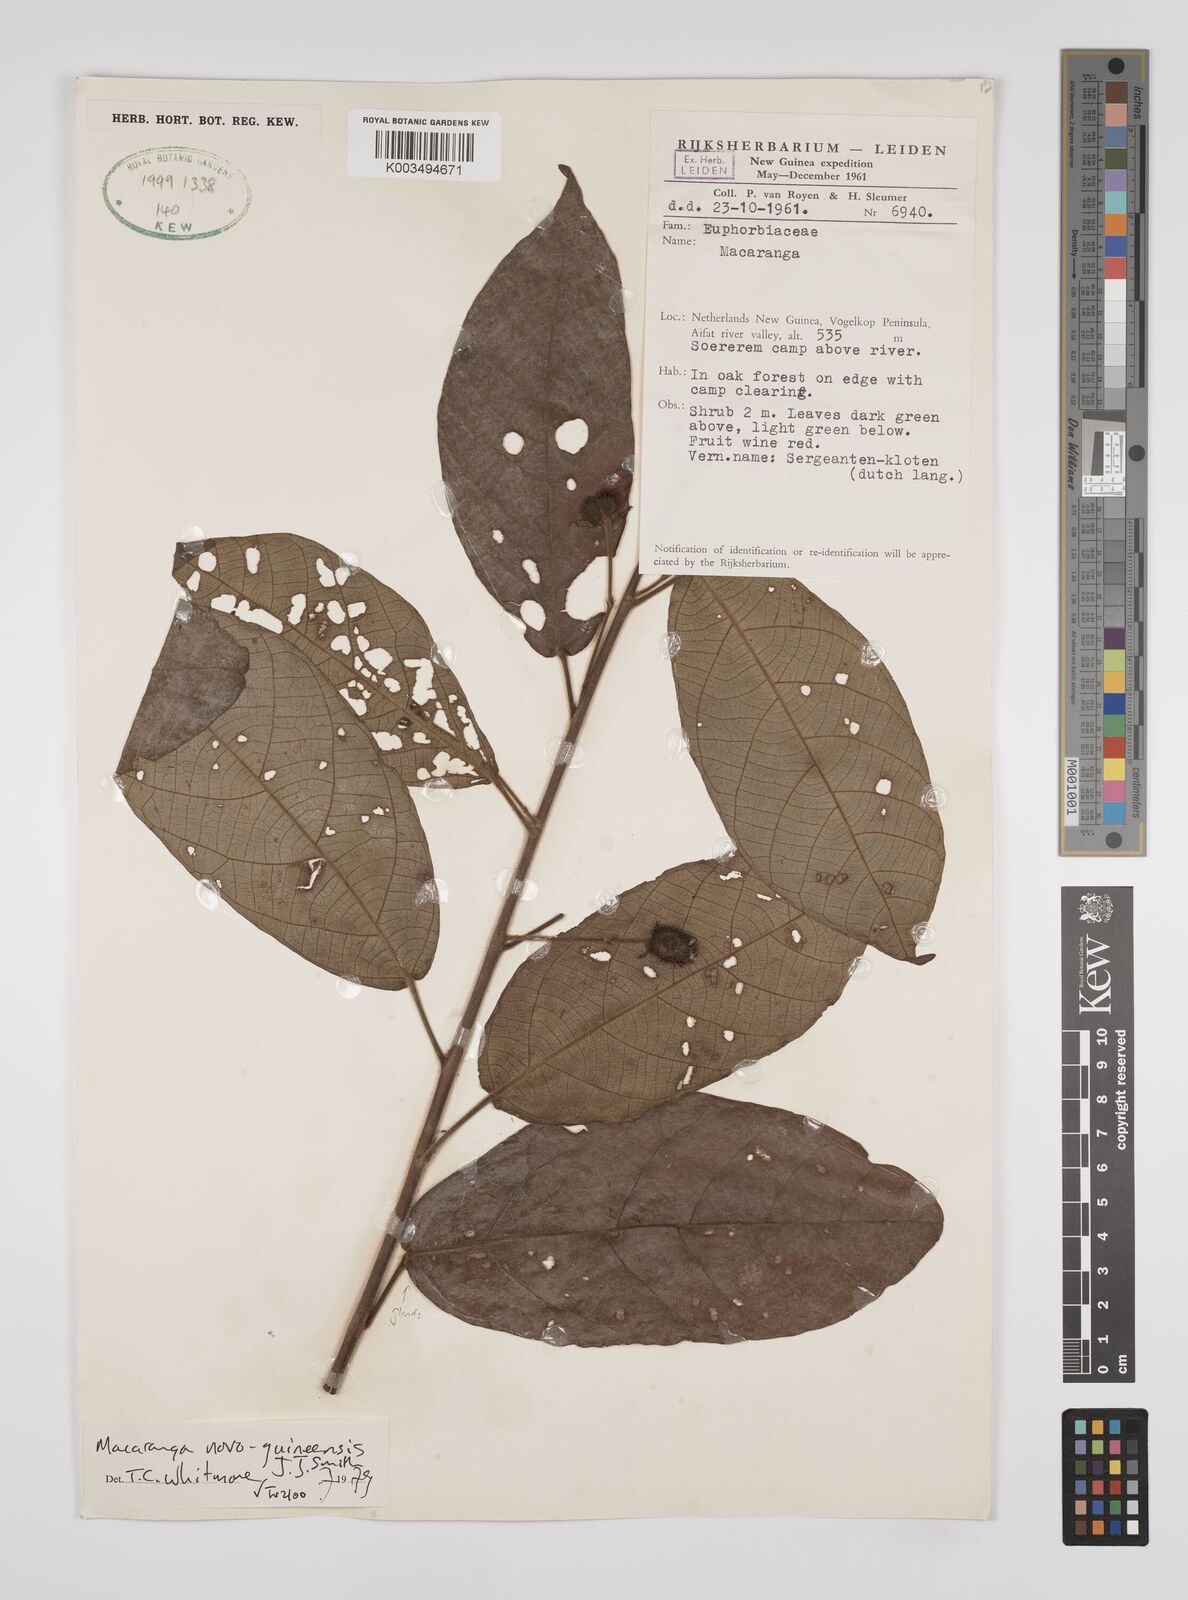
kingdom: Plantae
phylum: Tracheophyta
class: Magnoliopsida
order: Malpighiales
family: Euphorbiaceae
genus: Macaranga
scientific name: Macaranga novoguineensis
